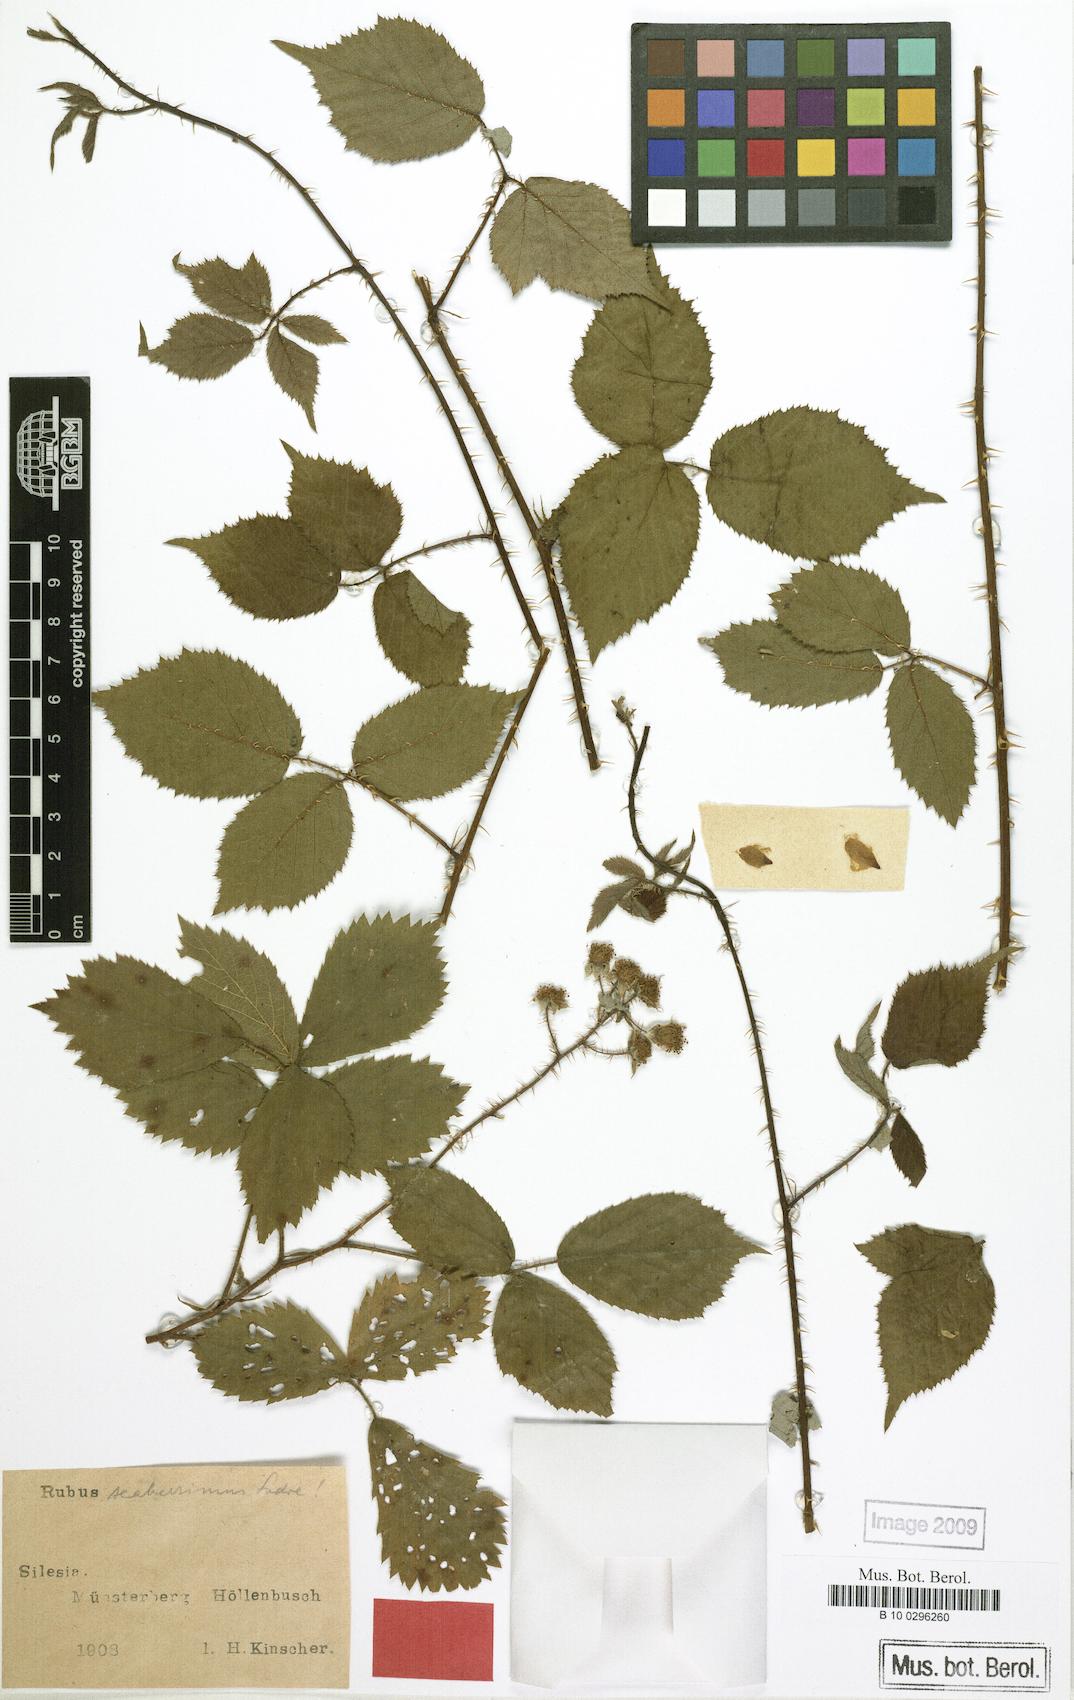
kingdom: Plantae
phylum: Tracheophyta
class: Magnoliopsida
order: Rosales
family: Rosaceae
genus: Rubus
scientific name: Rubus sentellus
